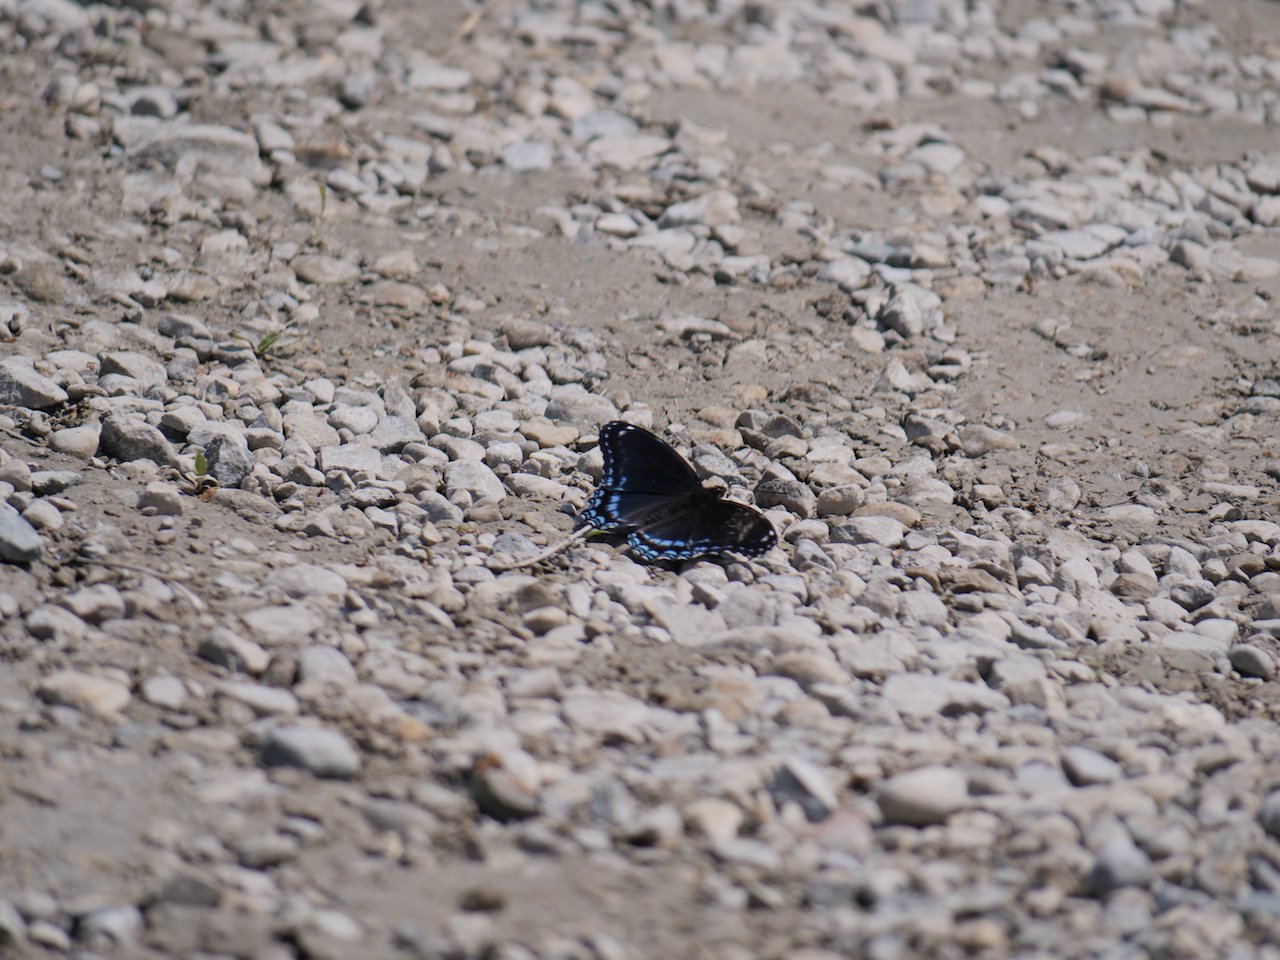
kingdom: Animalia
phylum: Arthropoda
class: Insecta
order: Lepidoptera
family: Nymphalidae
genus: Limenitis
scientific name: Limenitis astyanax
